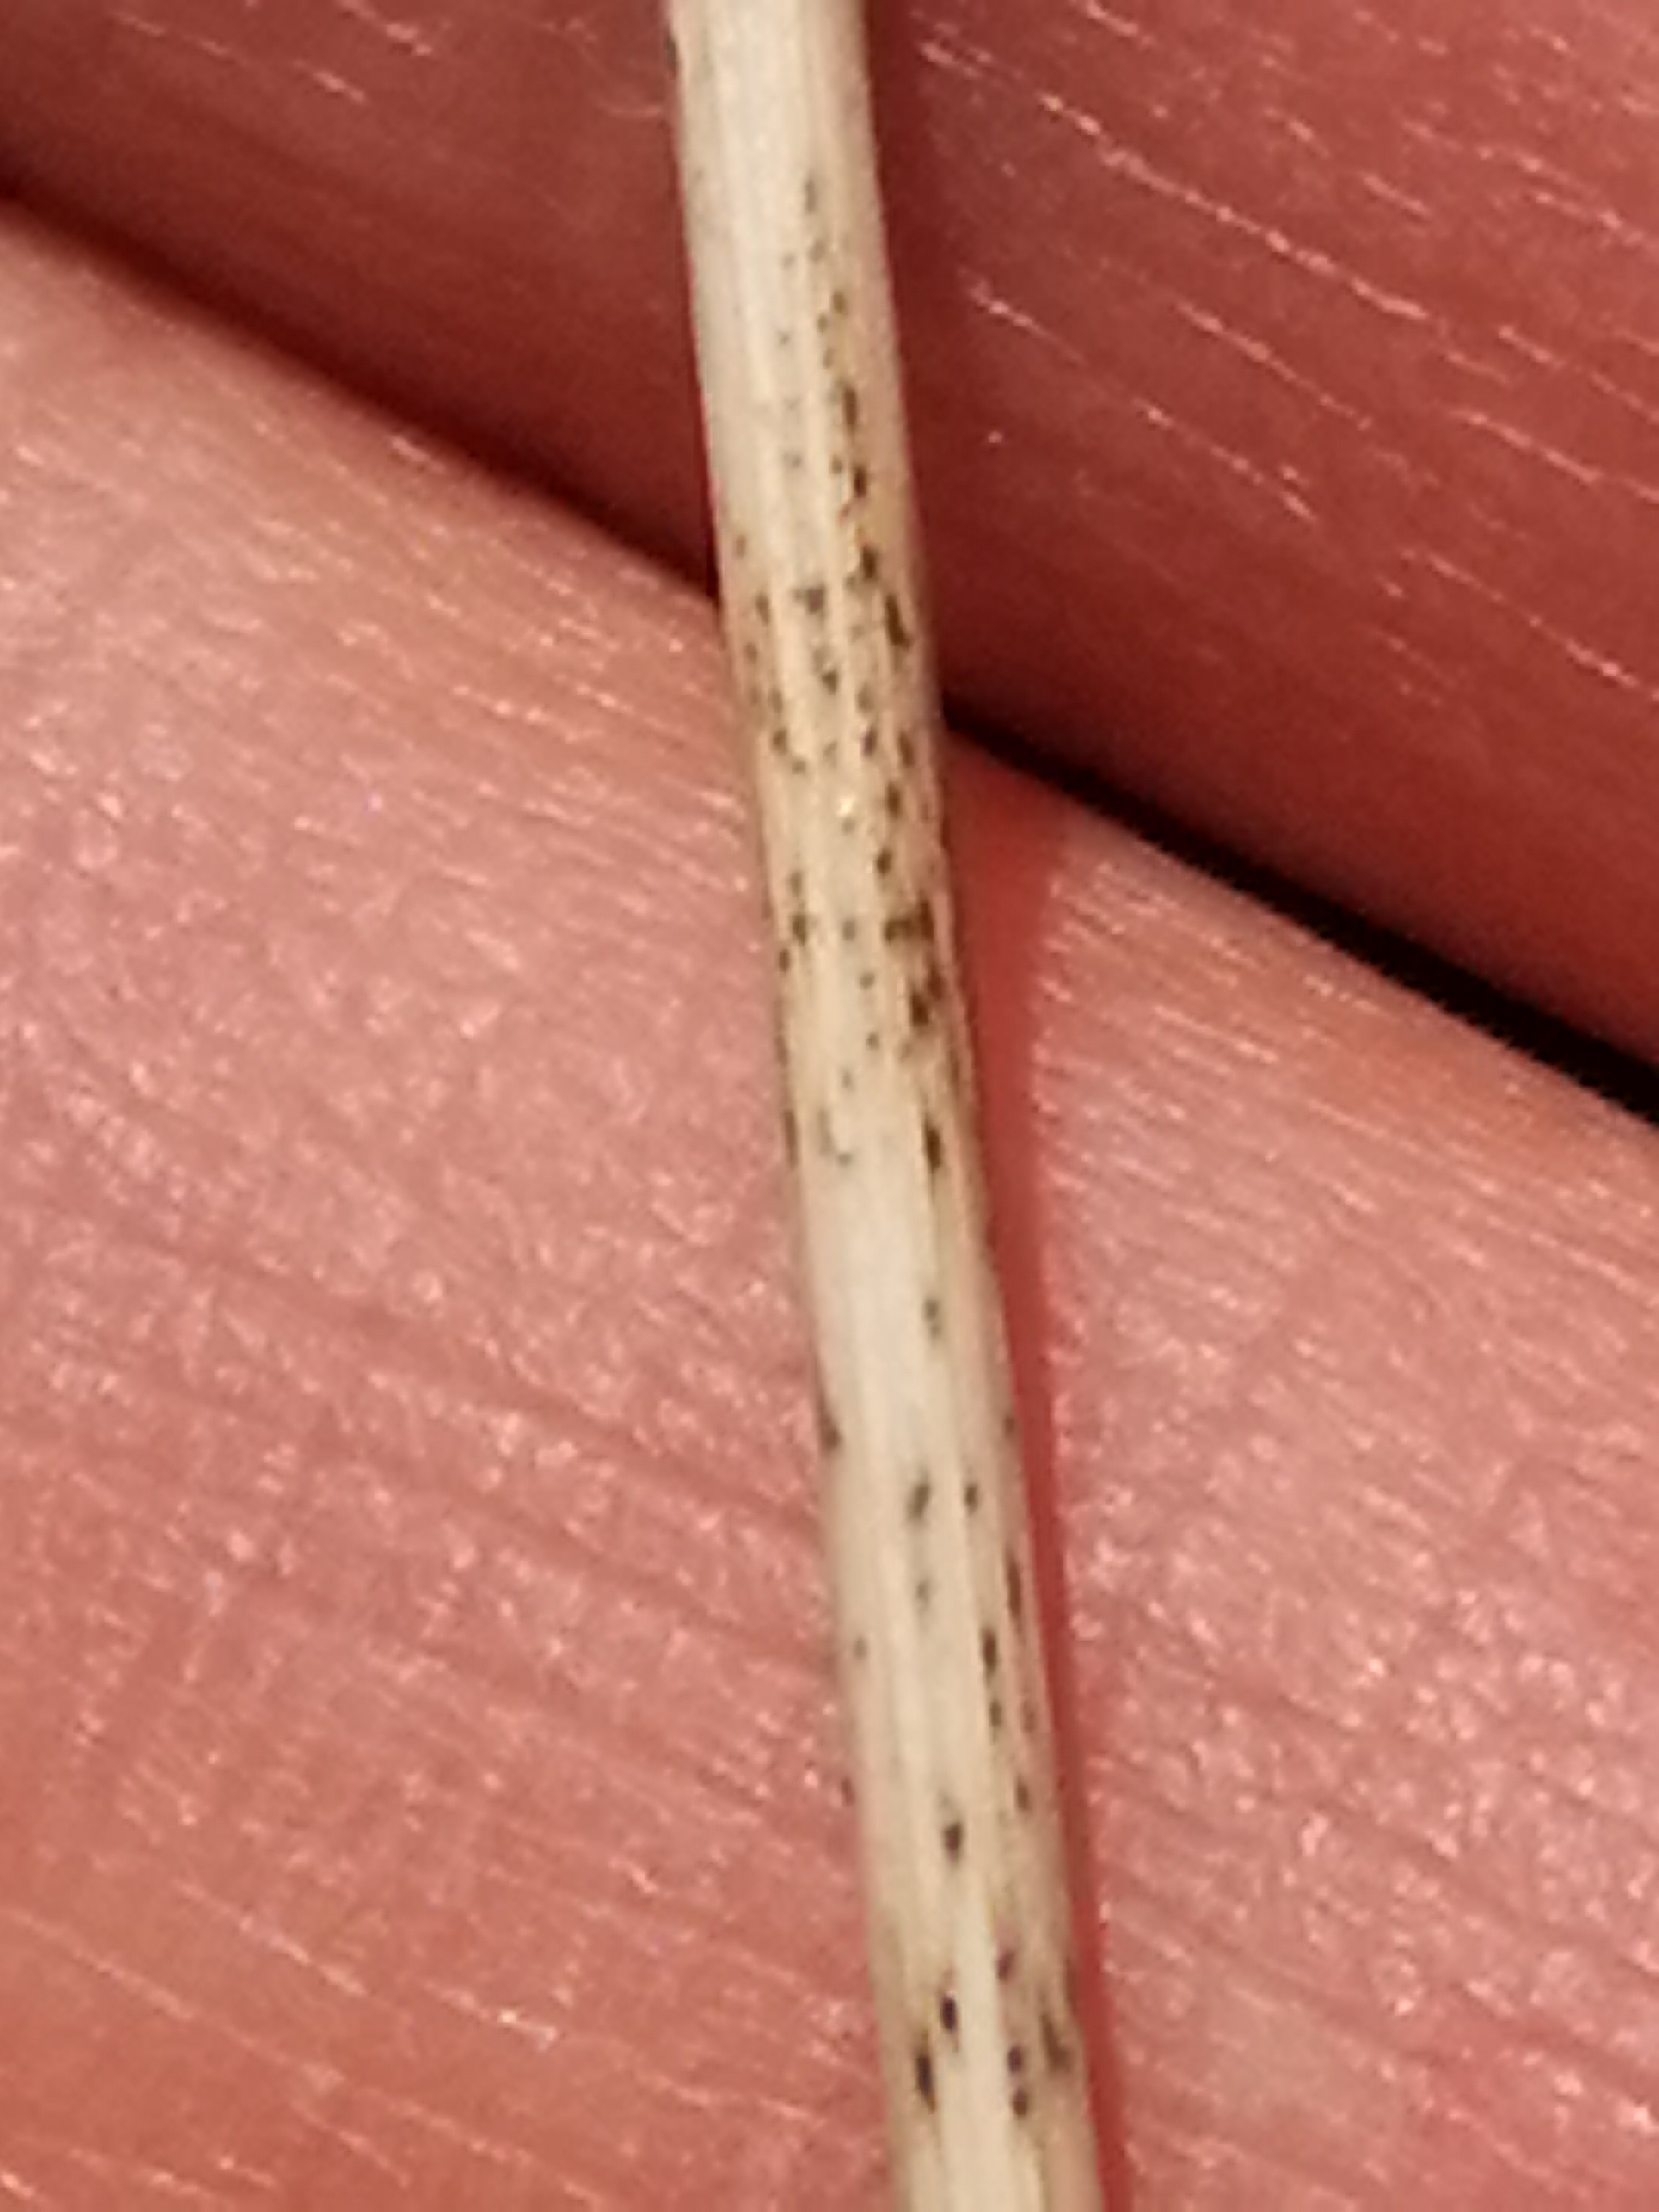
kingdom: Fungi
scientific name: Fungi
